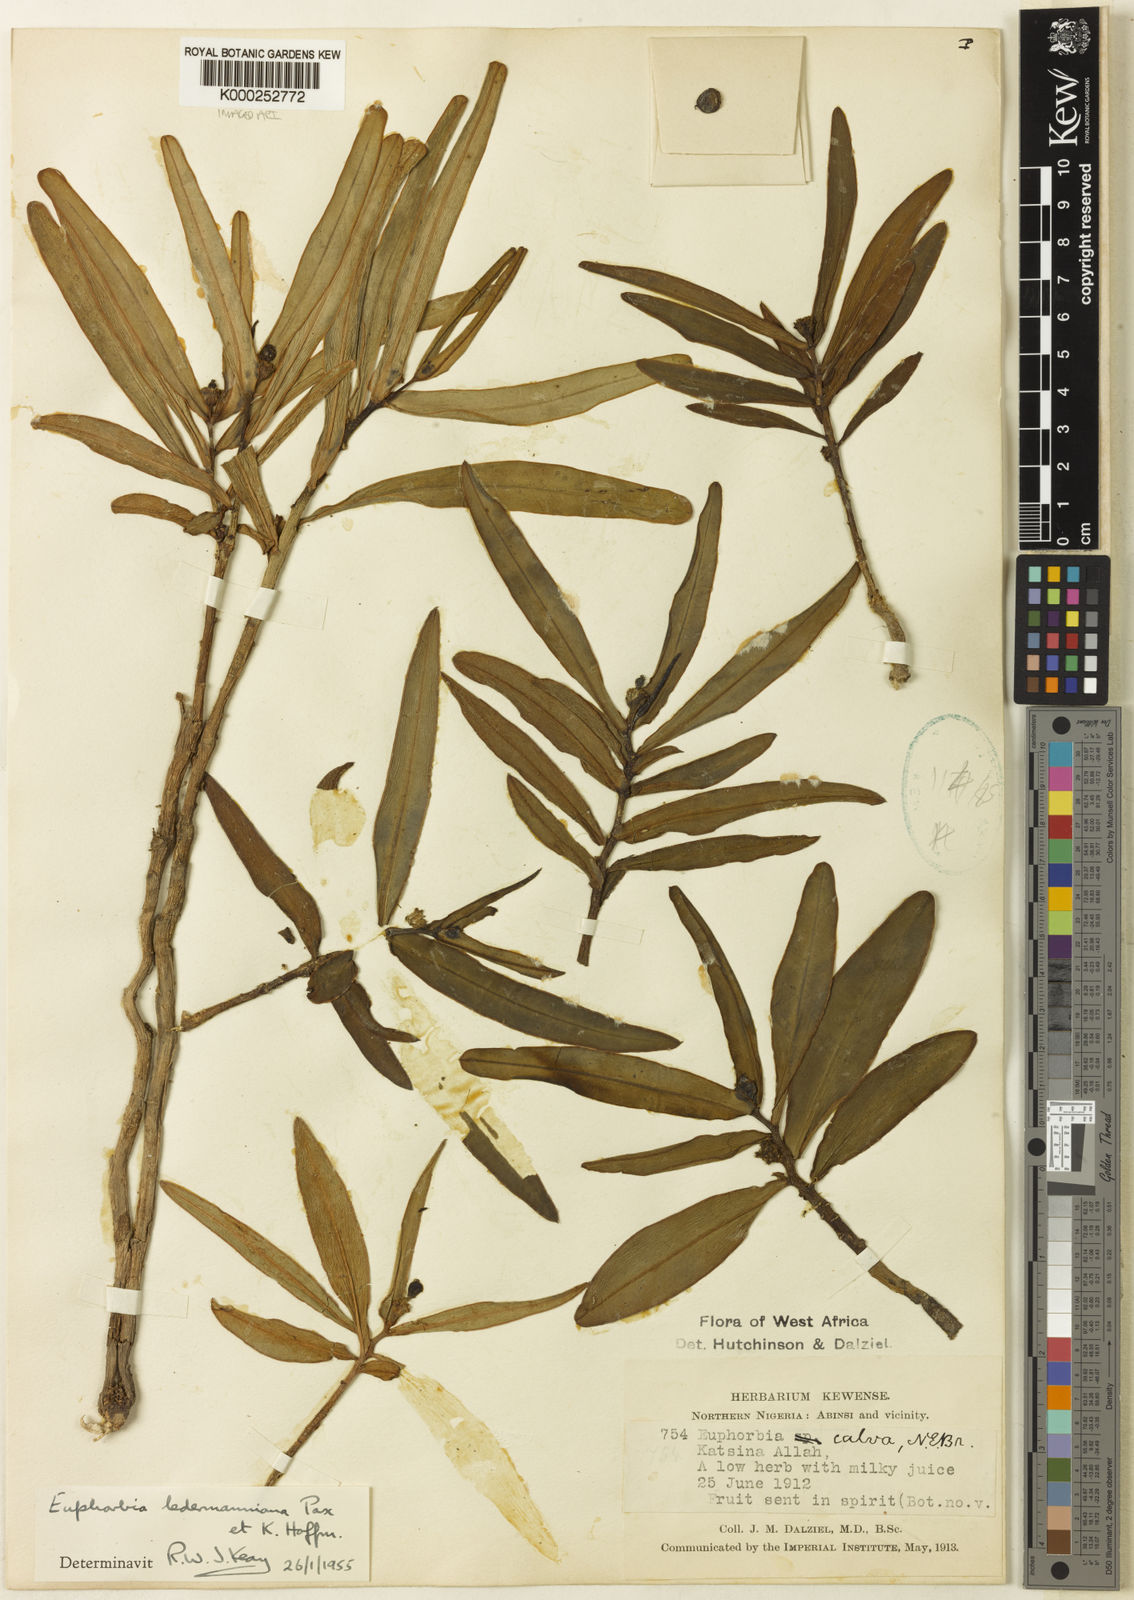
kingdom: Plantae
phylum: Tracheophyta
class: Magnoliopsida
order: Malpighiales
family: Euphorbiaceae
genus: Euphorbia
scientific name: Euphorbia ledermanniana
